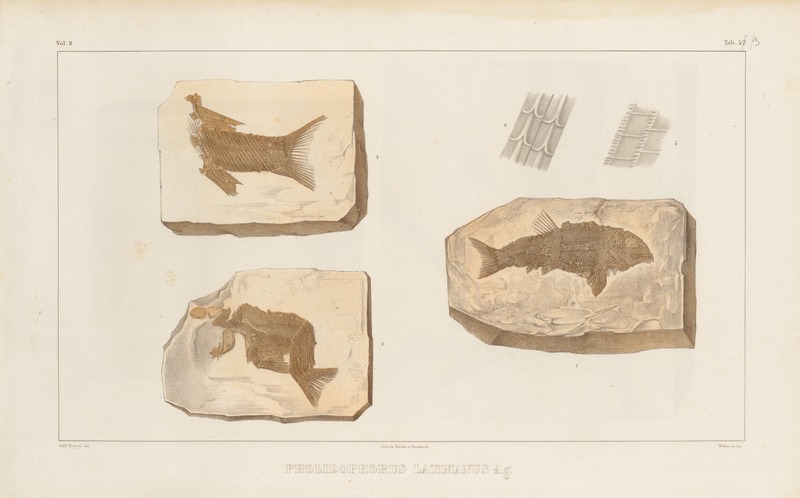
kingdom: Animalia
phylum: Chordata
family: Ophiopsiellidae
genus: Furo
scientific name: Furo latimanus
